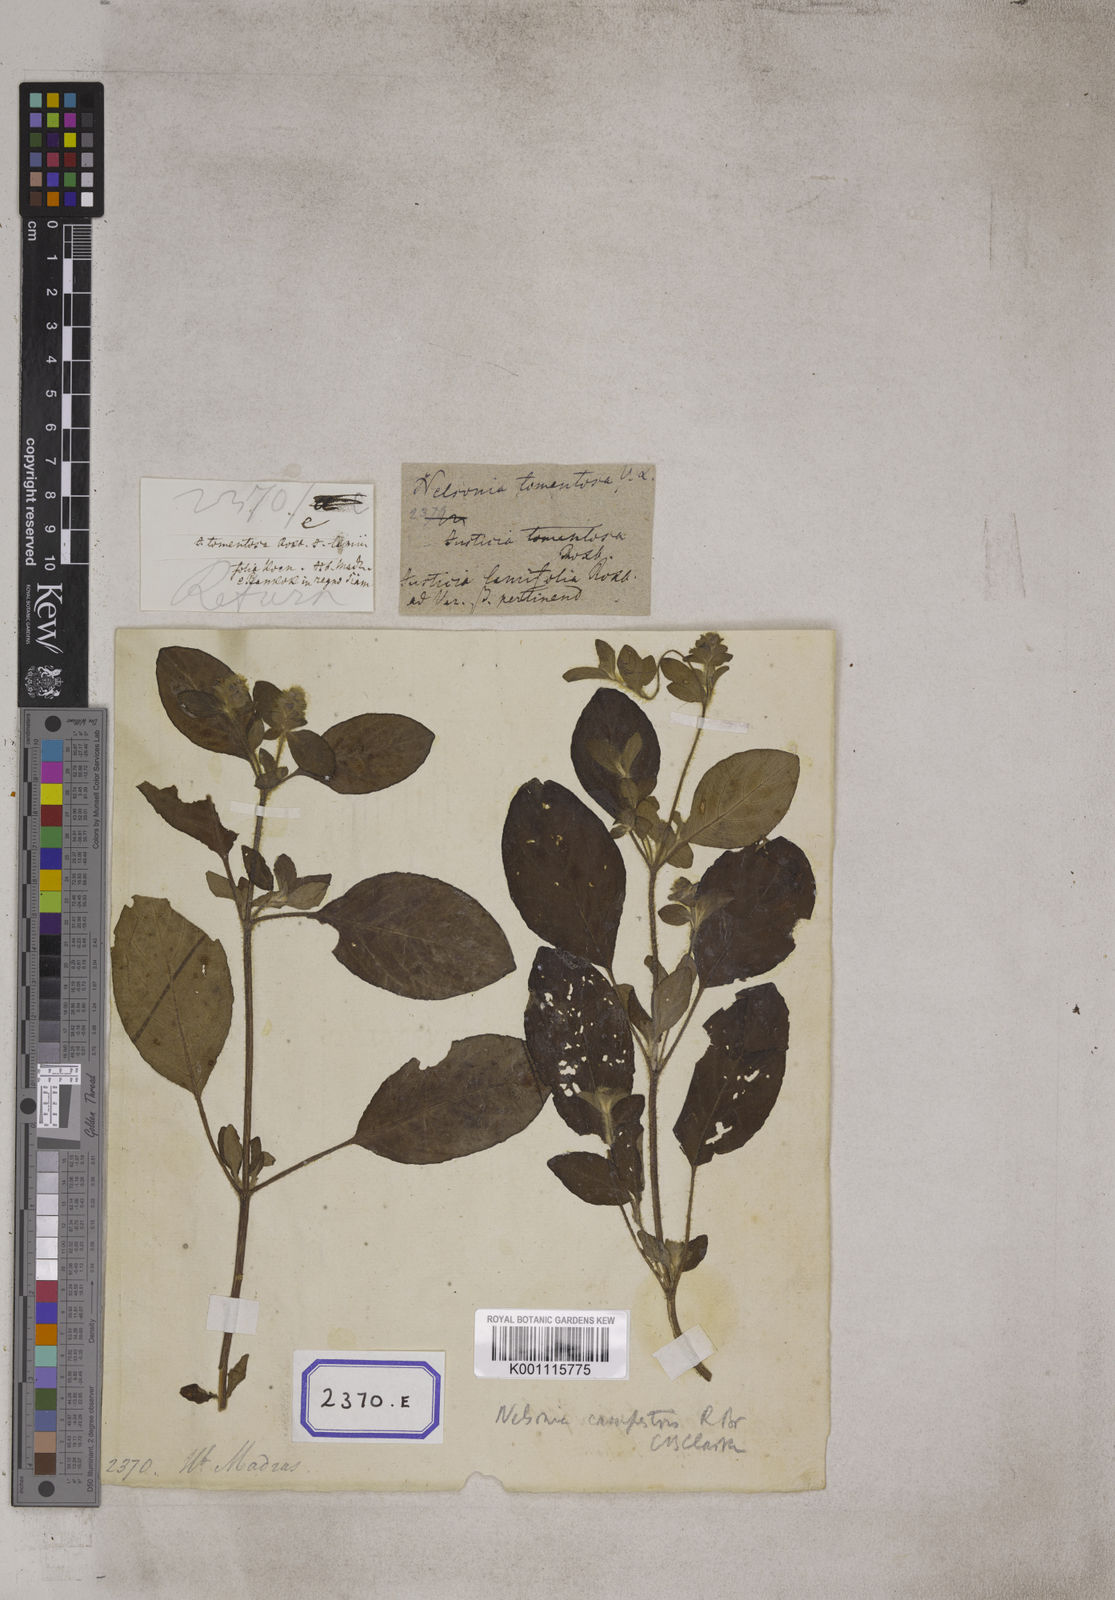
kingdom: Plantae
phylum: Tracheophyta
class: Magnoliopsida
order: Lamiales
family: Acanthaceae
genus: Nelsonia
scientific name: Nelsonia canescens
